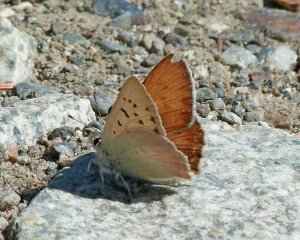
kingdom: Animalia
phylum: Arthropoda
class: Insecta
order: Lepidoptera
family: Lycaenidae
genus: Lycaena
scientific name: Lycaena nivalis
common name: Lilac-bordered Copper
